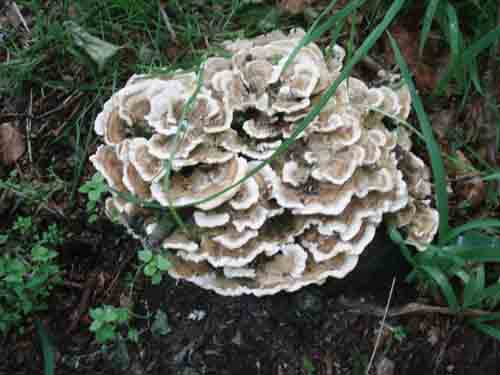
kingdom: Fungi
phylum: Basidiomycota
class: Agaricomycetes
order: Polyporales
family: Polyporaceae
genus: Trametes
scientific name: Trametes versicolor
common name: broget læderporesvamp
